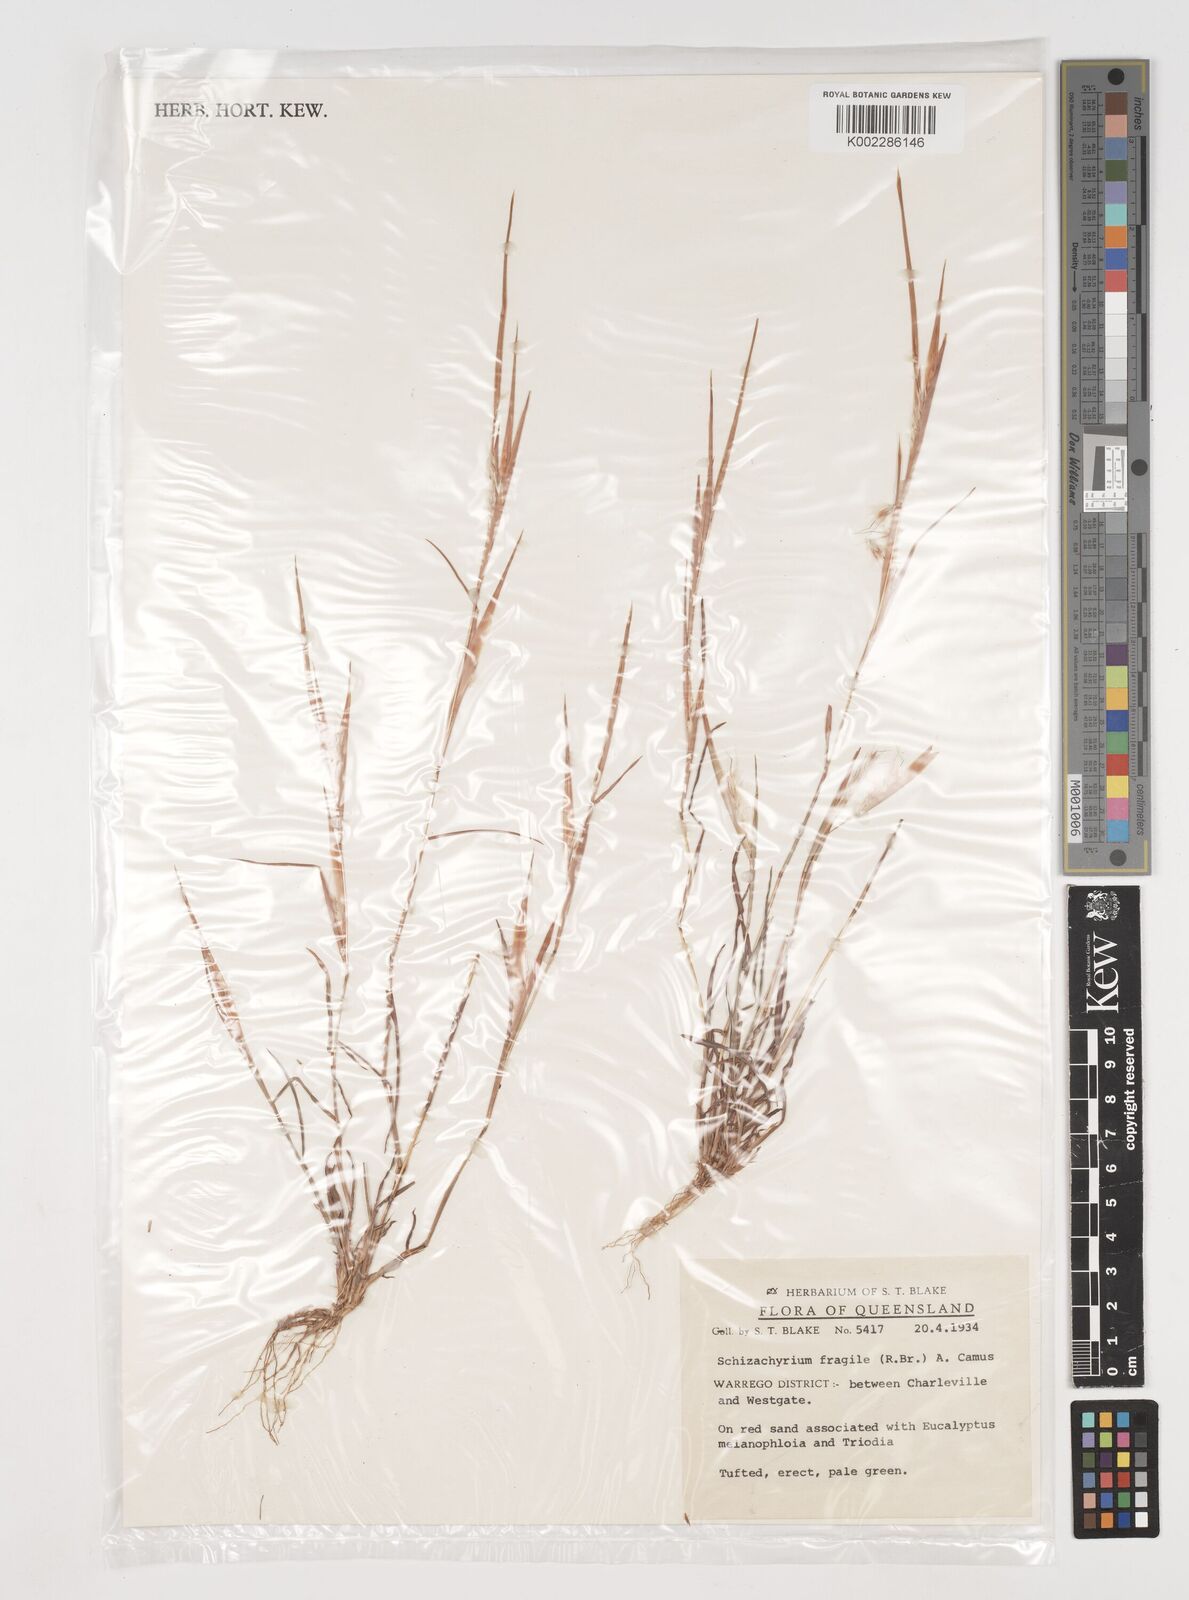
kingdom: Plantae
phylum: Tracheophyta
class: Liliopsida
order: Poales
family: Poaceae
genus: Schizachyrium
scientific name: Schizachyrium fragile
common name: Red spathe grass
